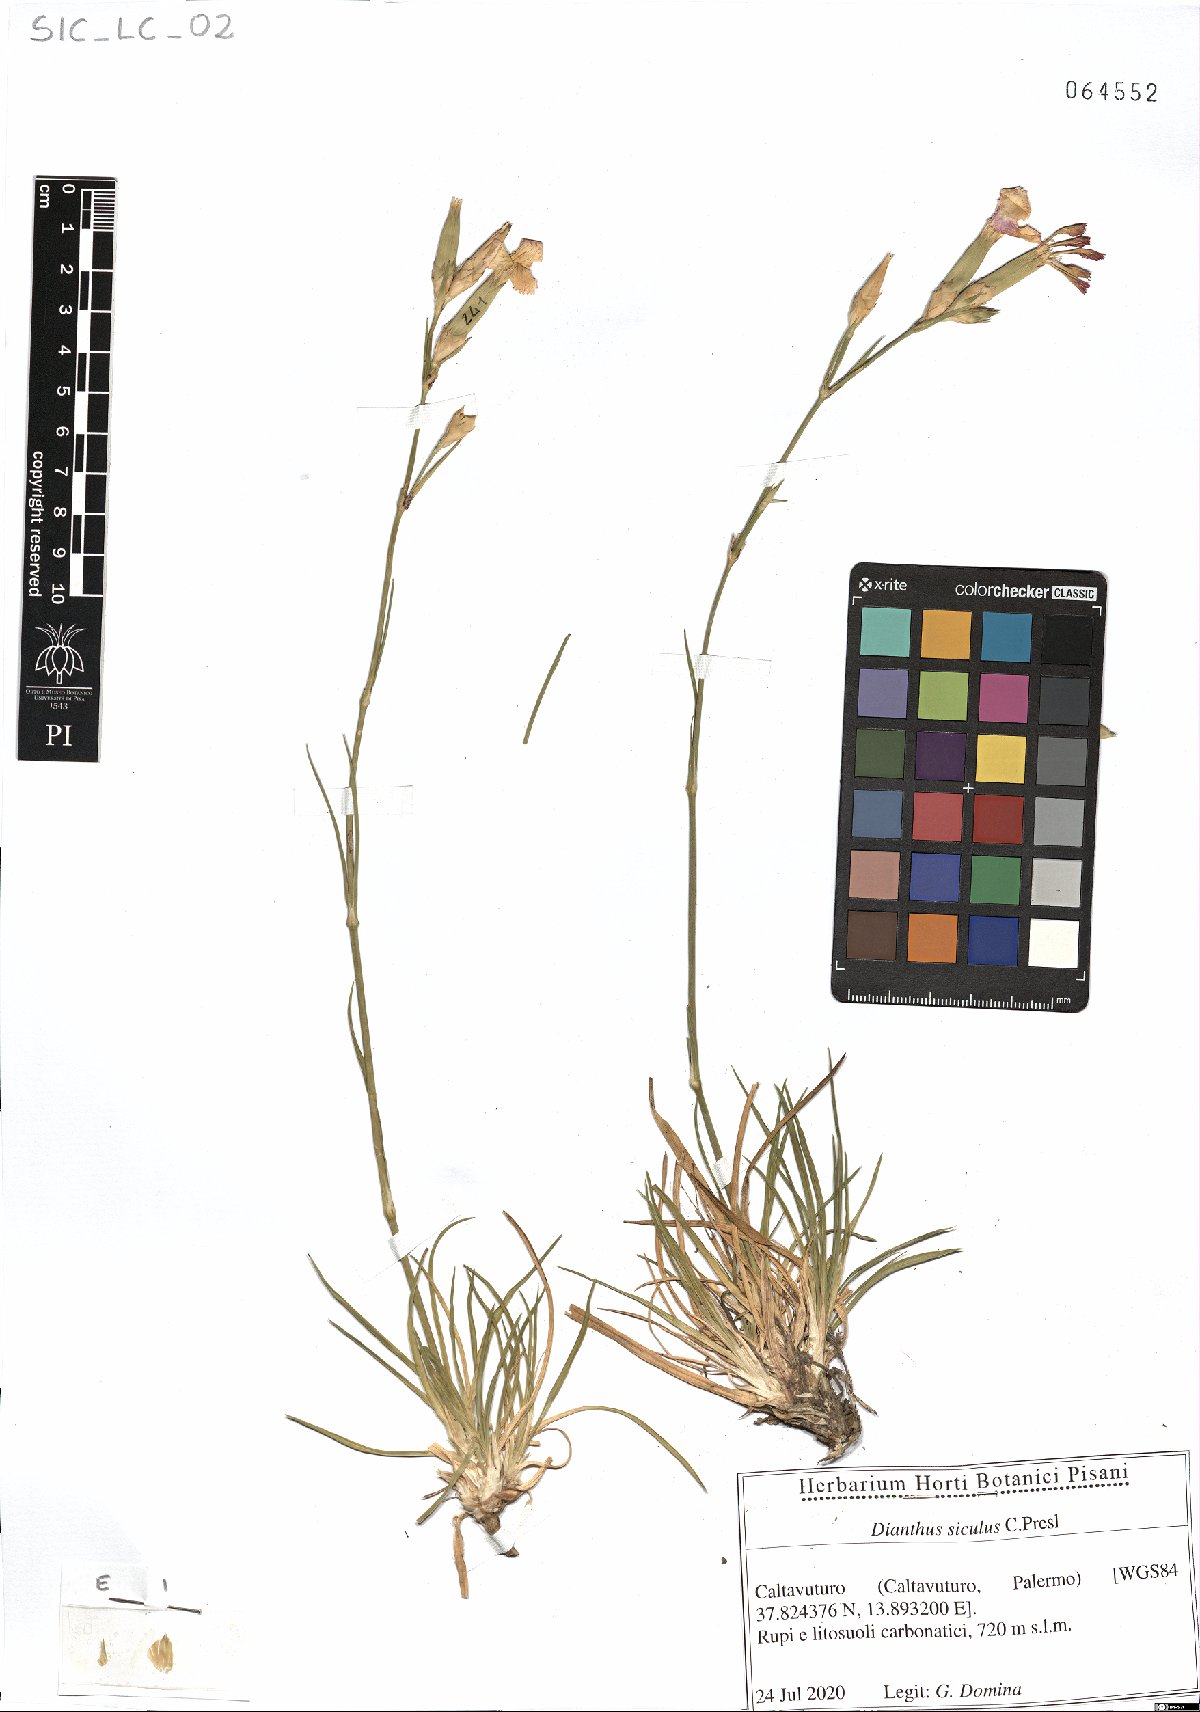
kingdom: Plantae
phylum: Tracheophyta
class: Magnoliopsida
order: Caryophyllales
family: Caryophyllaceae
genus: Dianthus
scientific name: Dianthus siculus
